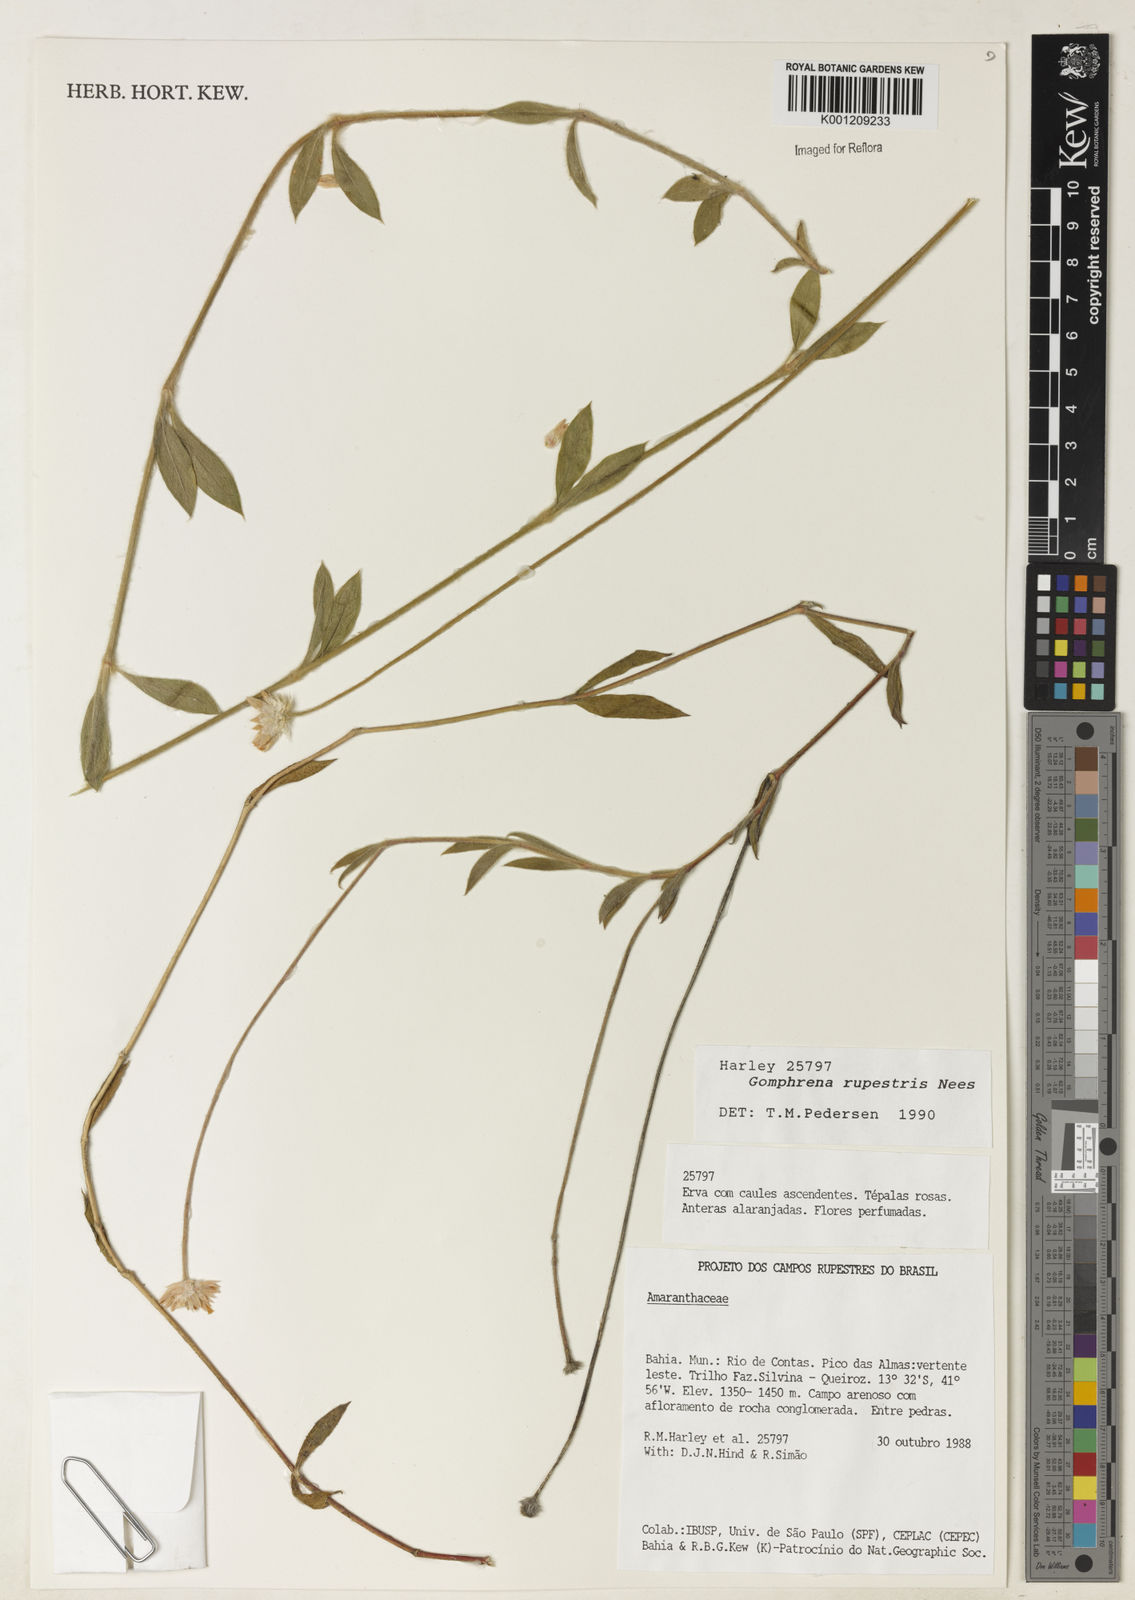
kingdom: Plantae
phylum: Tracheophyta
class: Magnoliopsida
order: Caryophyllales
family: Amaranthaceae
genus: Gomphrena
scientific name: Gomphrena rupestris
